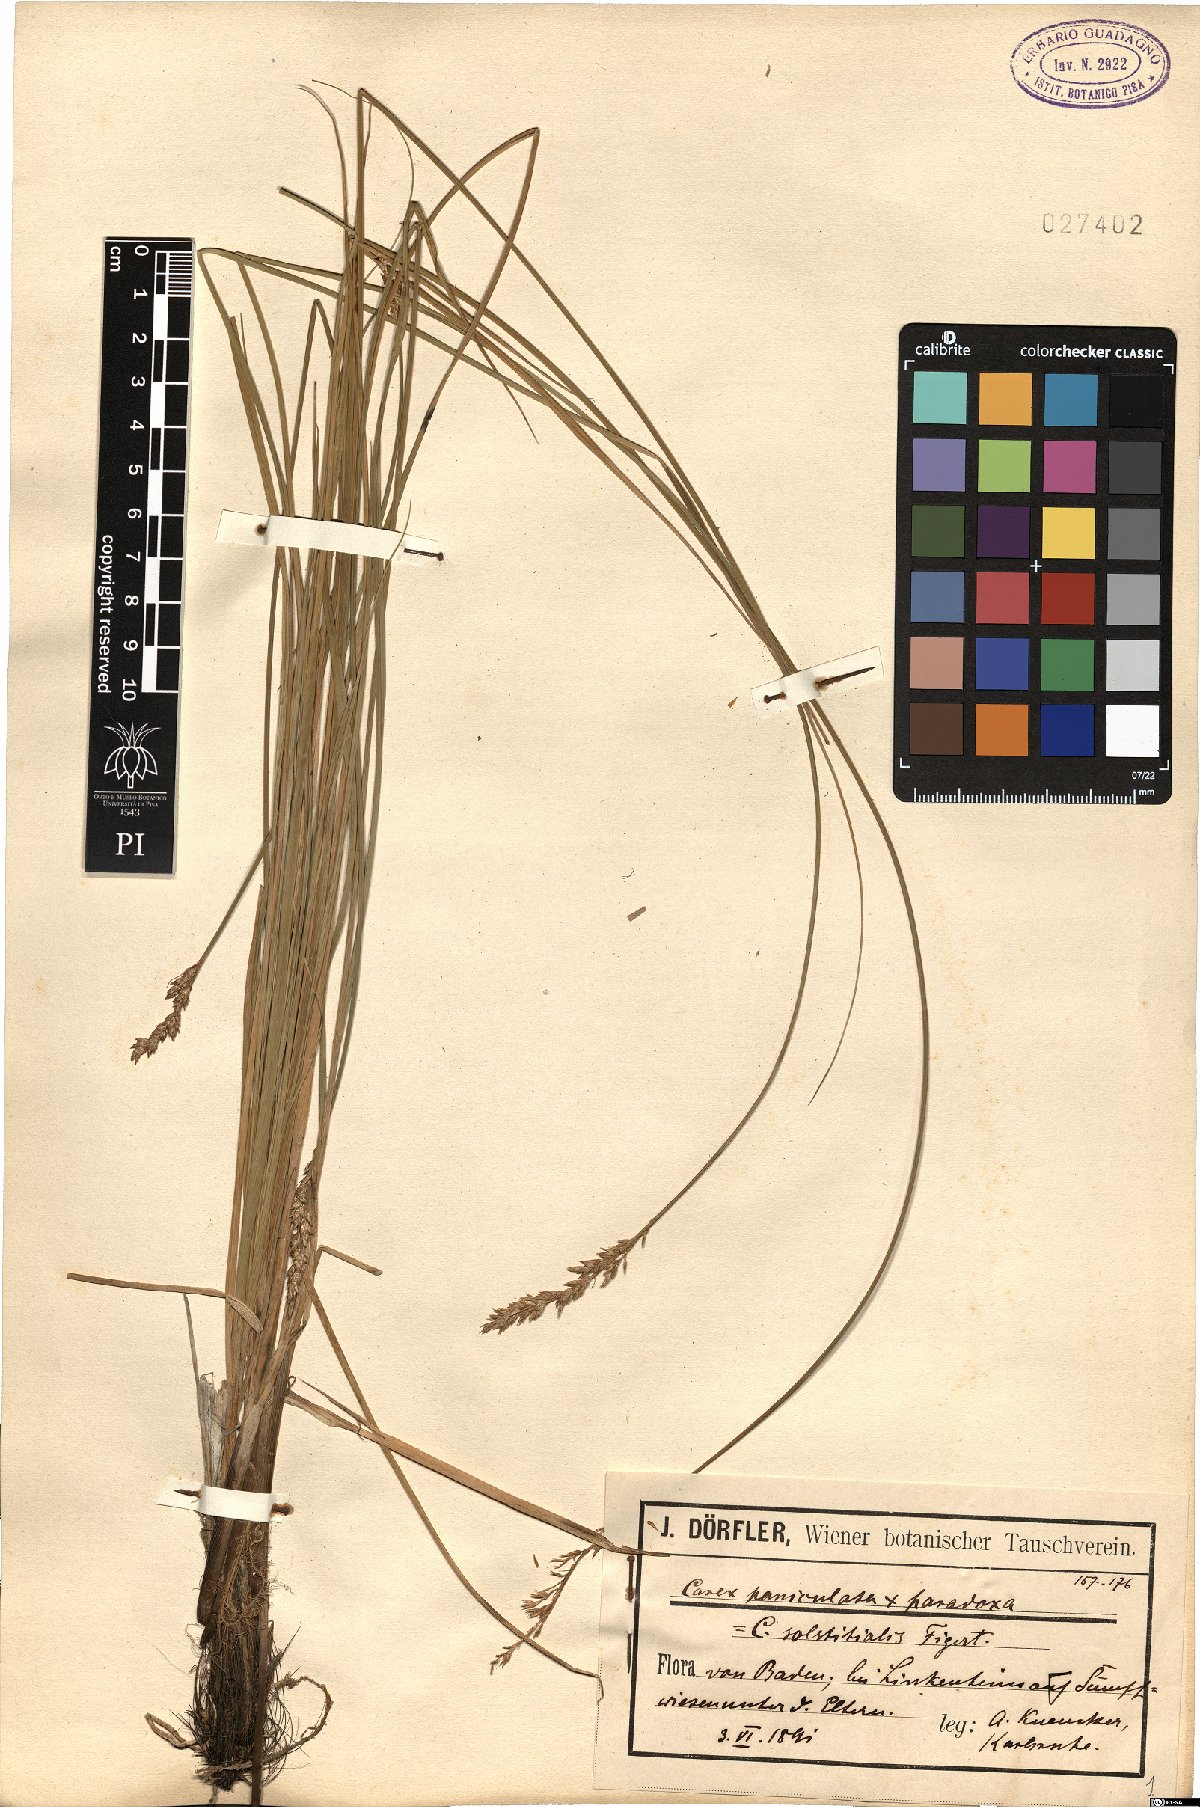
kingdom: Plantae
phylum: Tracheophyta
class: Liliopsida
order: Poales
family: Cyperaceae
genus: Carex
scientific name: Carex rotae
